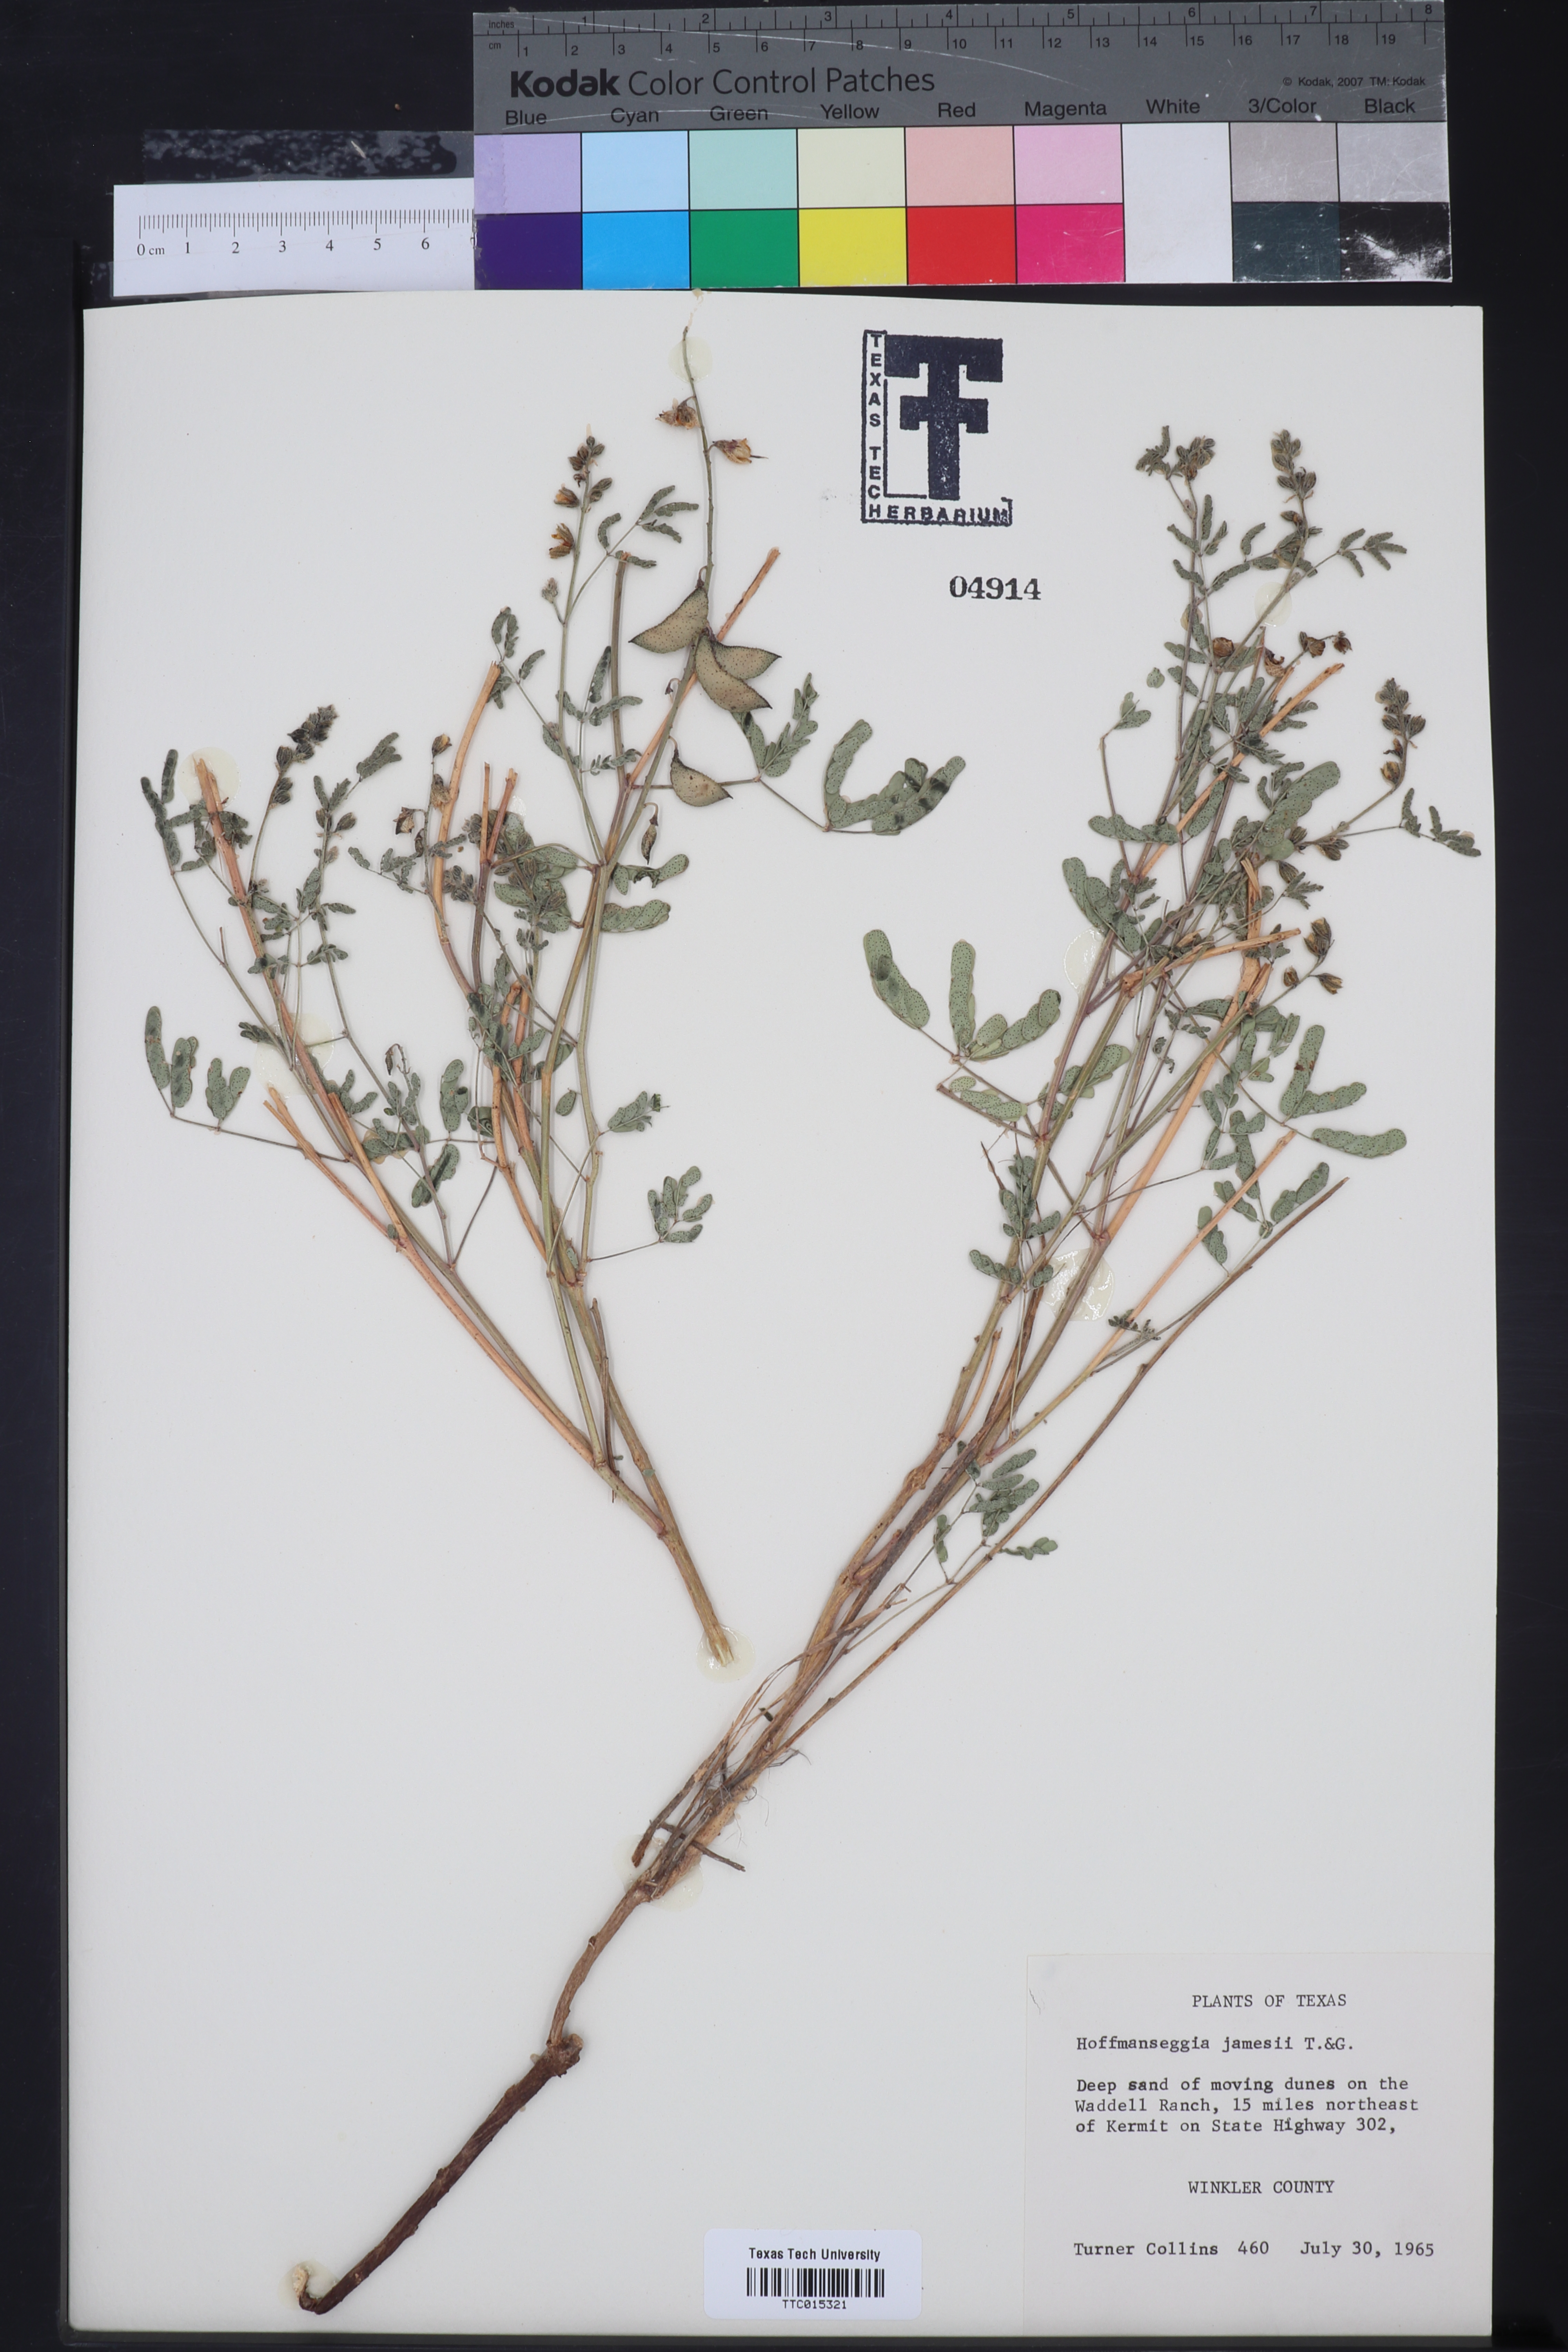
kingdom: Plantae
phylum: Tracheophyta
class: Magnoliopsida
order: Fabales
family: Fabaceae
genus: Pomaria
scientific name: Pomaria jamesii
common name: James' caesalpinia
